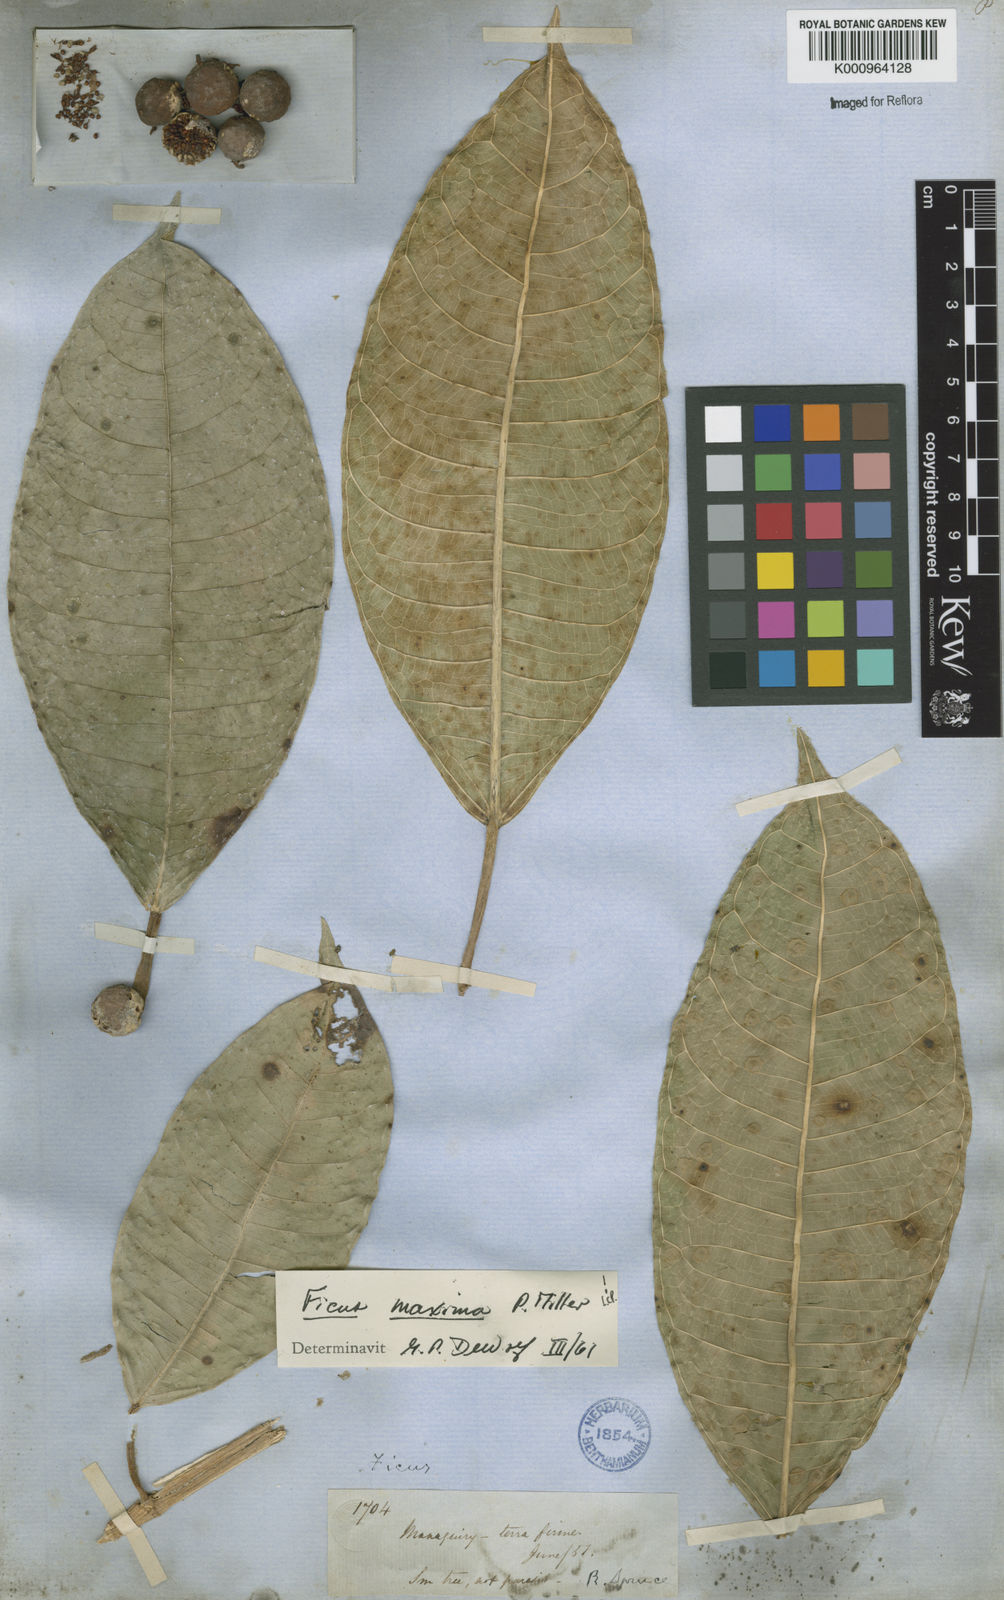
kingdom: Plantae
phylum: Tracheophyta
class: Magnoliopsida
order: Rosales
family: Moraceae
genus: Ficus
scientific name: Ficus maxima
